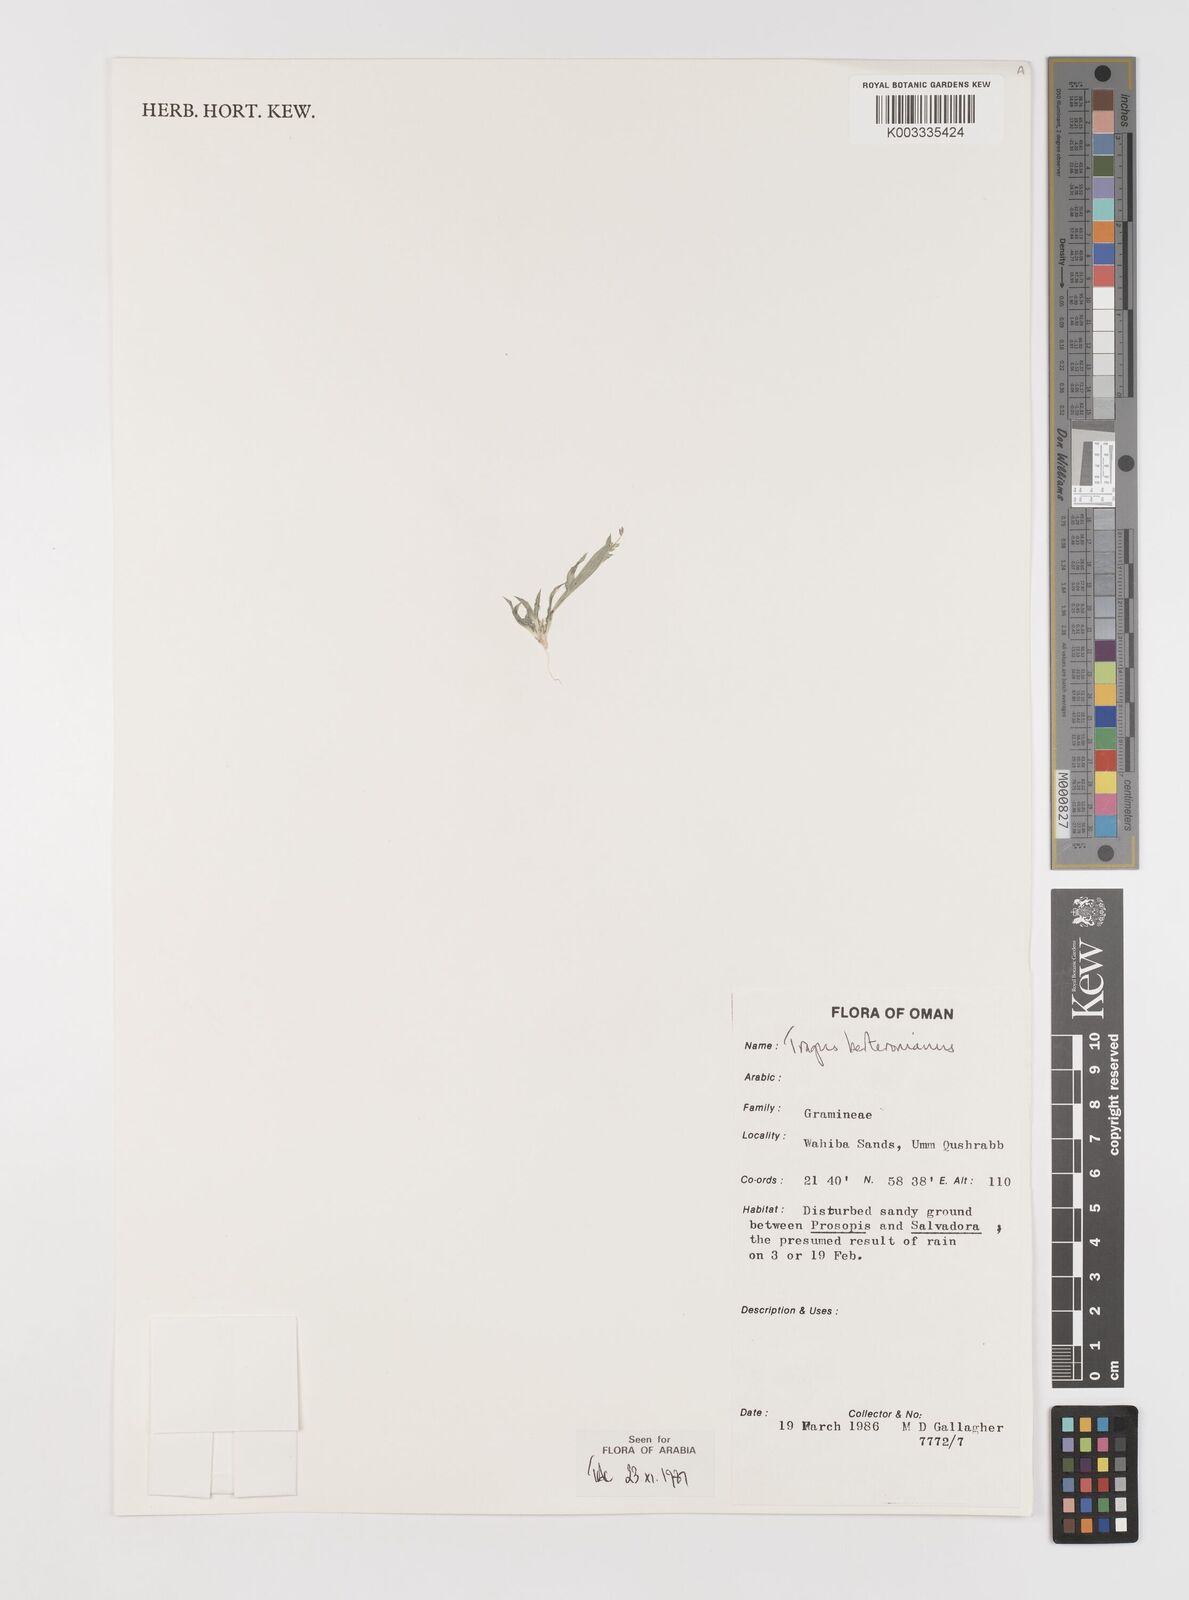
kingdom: Plantae
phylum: Tracheophyta
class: Liliopsida
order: Poales
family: Poaceae
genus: Tragus
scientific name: Tragus berteronianus
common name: African bur-grass
